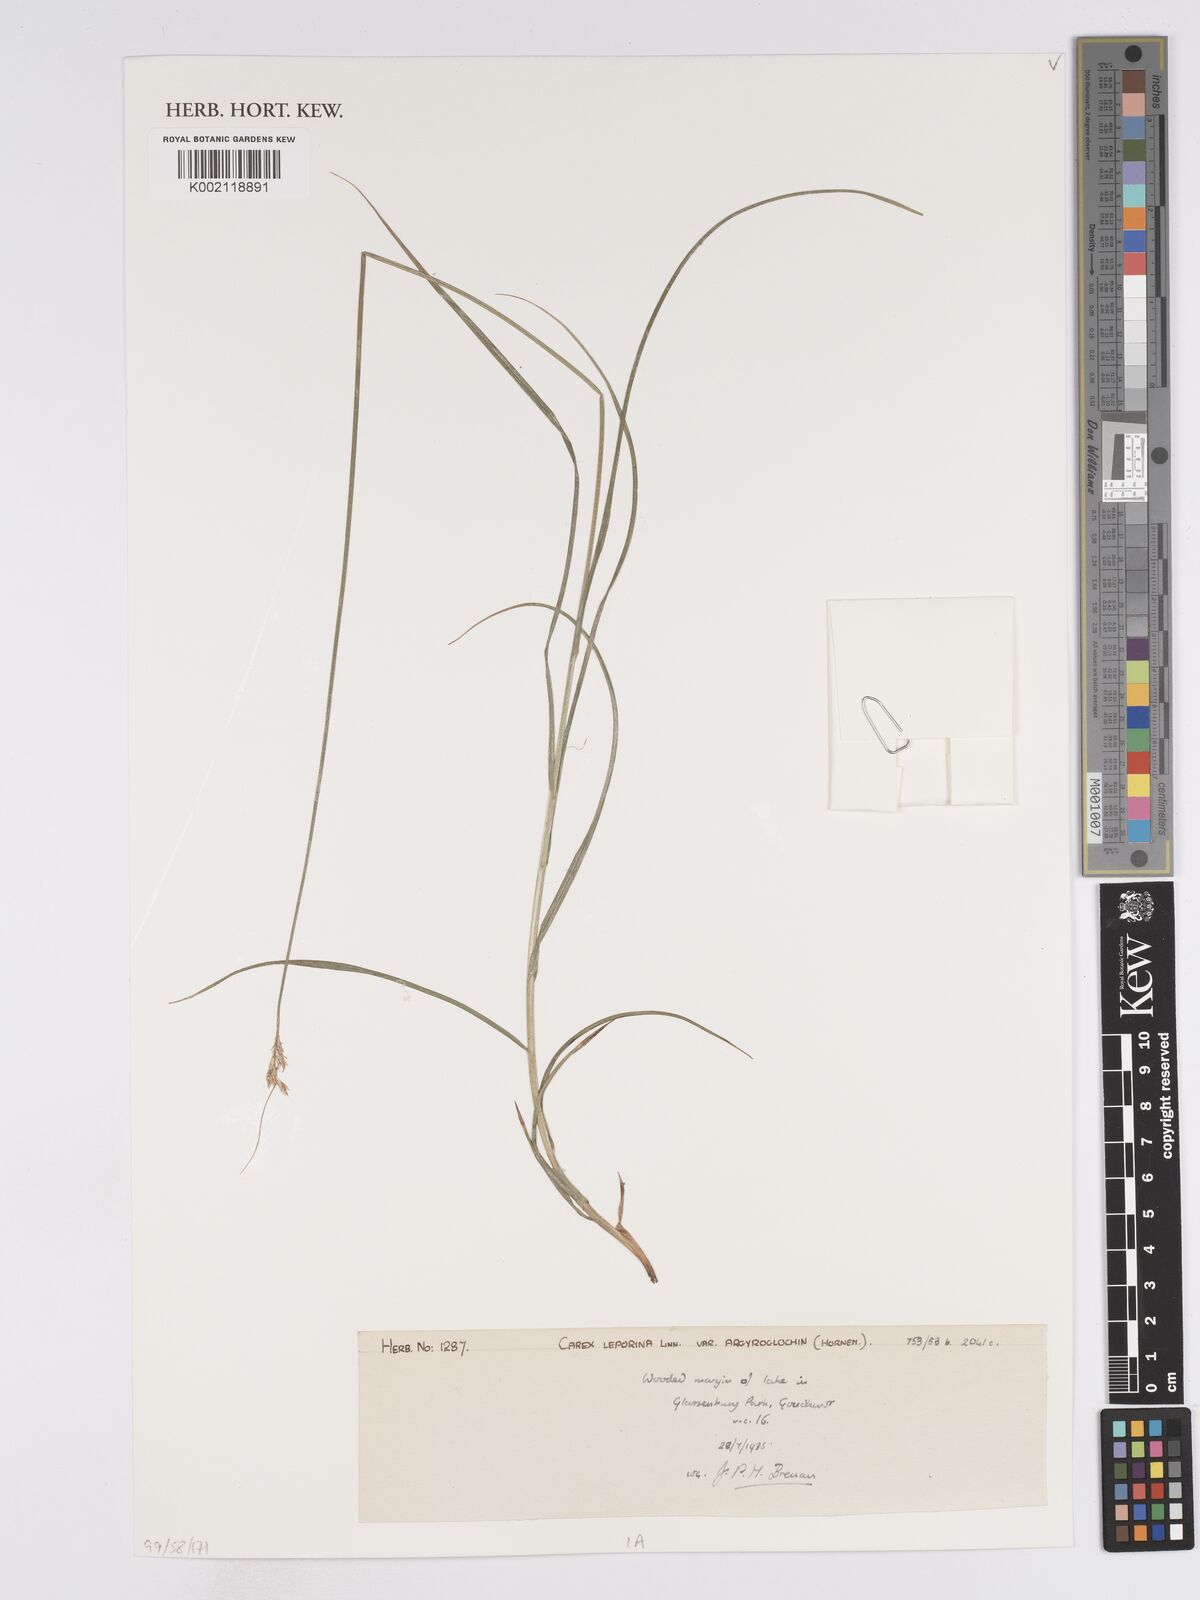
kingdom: Plantae
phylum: Tracheophyta
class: Liliopsida
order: Poales
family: Cyperaceae
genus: Carex
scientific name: Carex leporina
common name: Oval sedge
